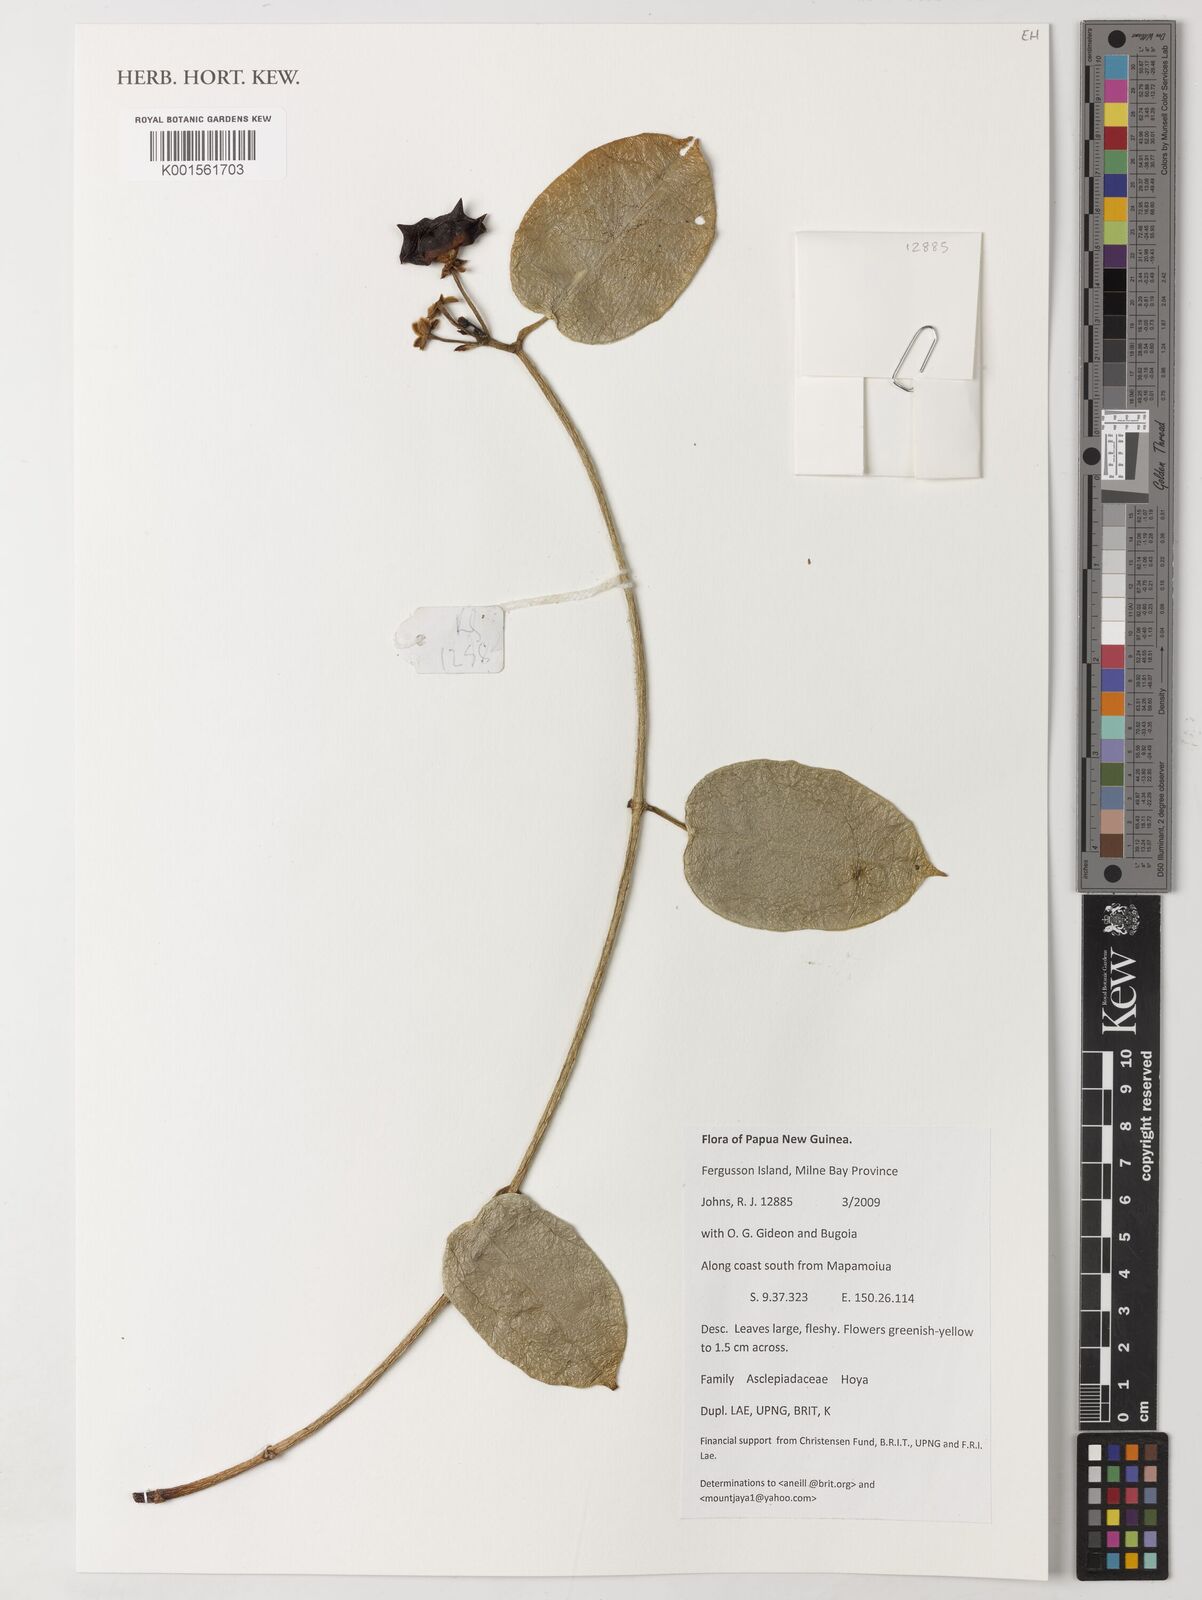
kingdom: Plantae
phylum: Tracheophyta
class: Magnoliopsida
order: Gentianales
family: Apocynaceae
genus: Hoya
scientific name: Hoya
